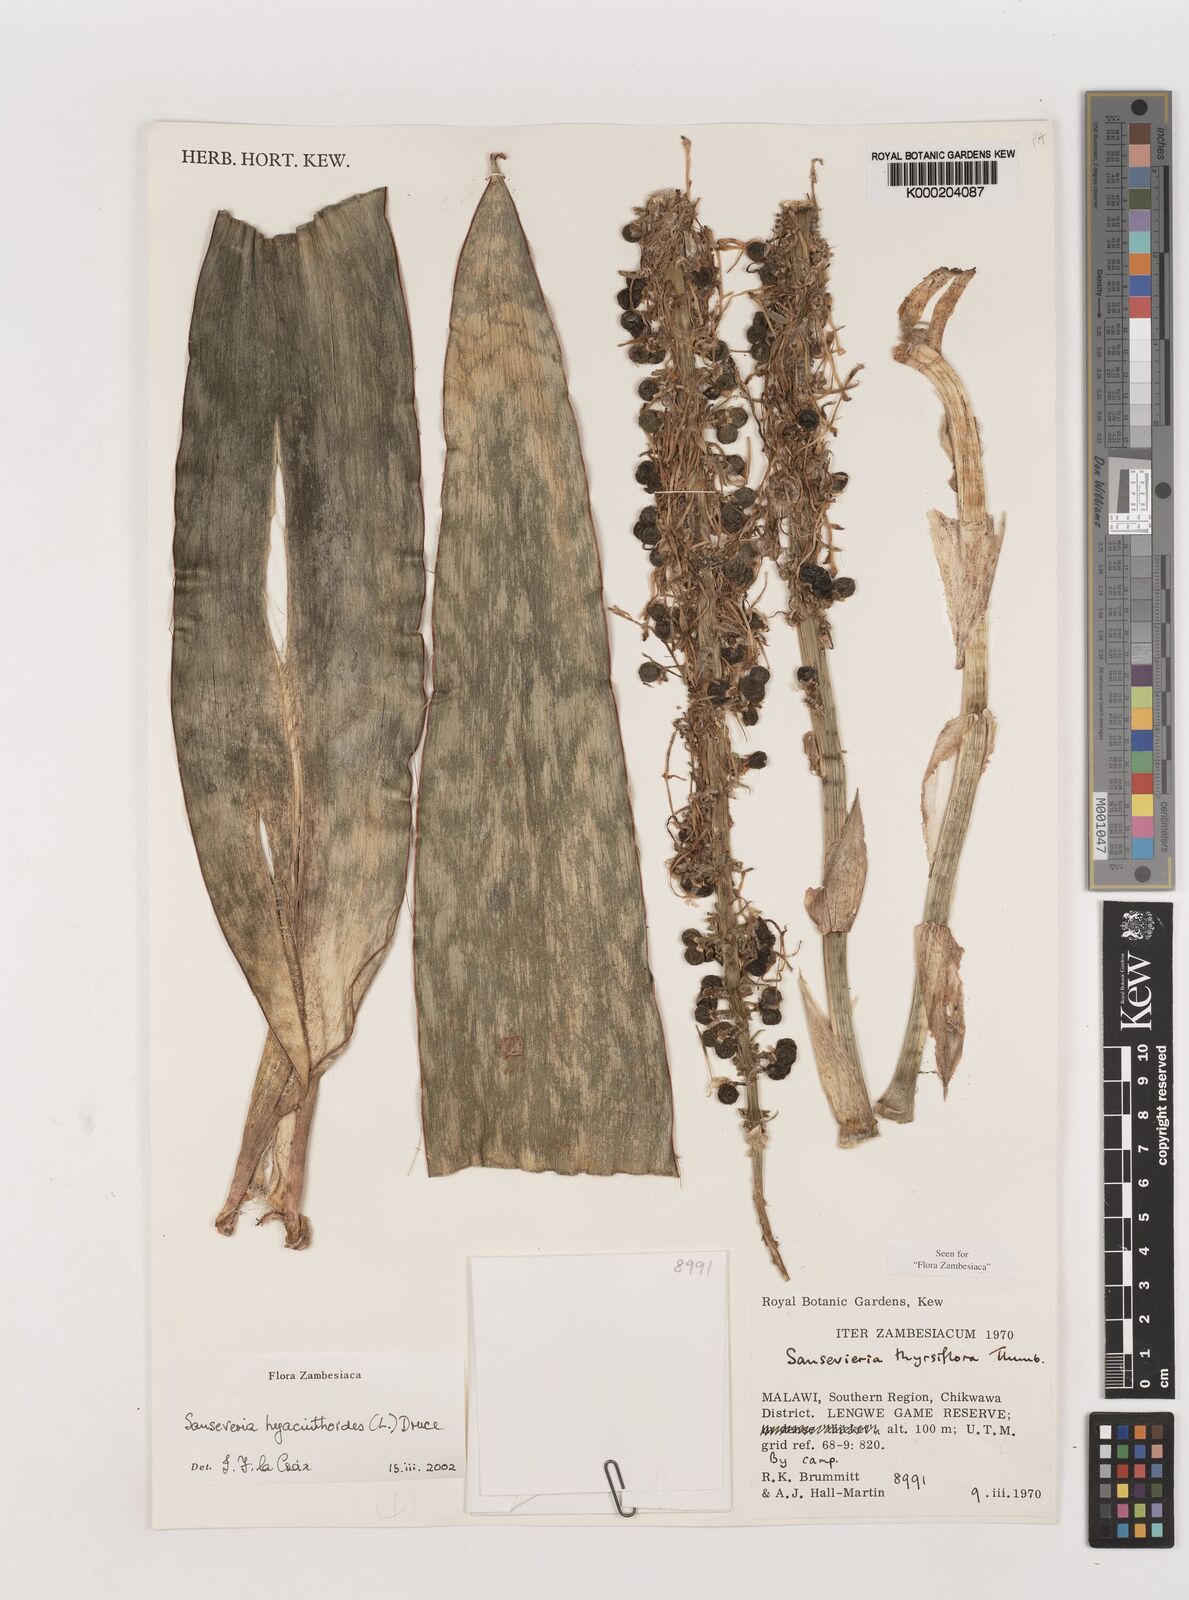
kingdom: Plantae
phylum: Tracheophyta
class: Liliopsida
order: Asparagales
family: Asparagaceae
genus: Dracaena
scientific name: Dracaena hyacinthoides
